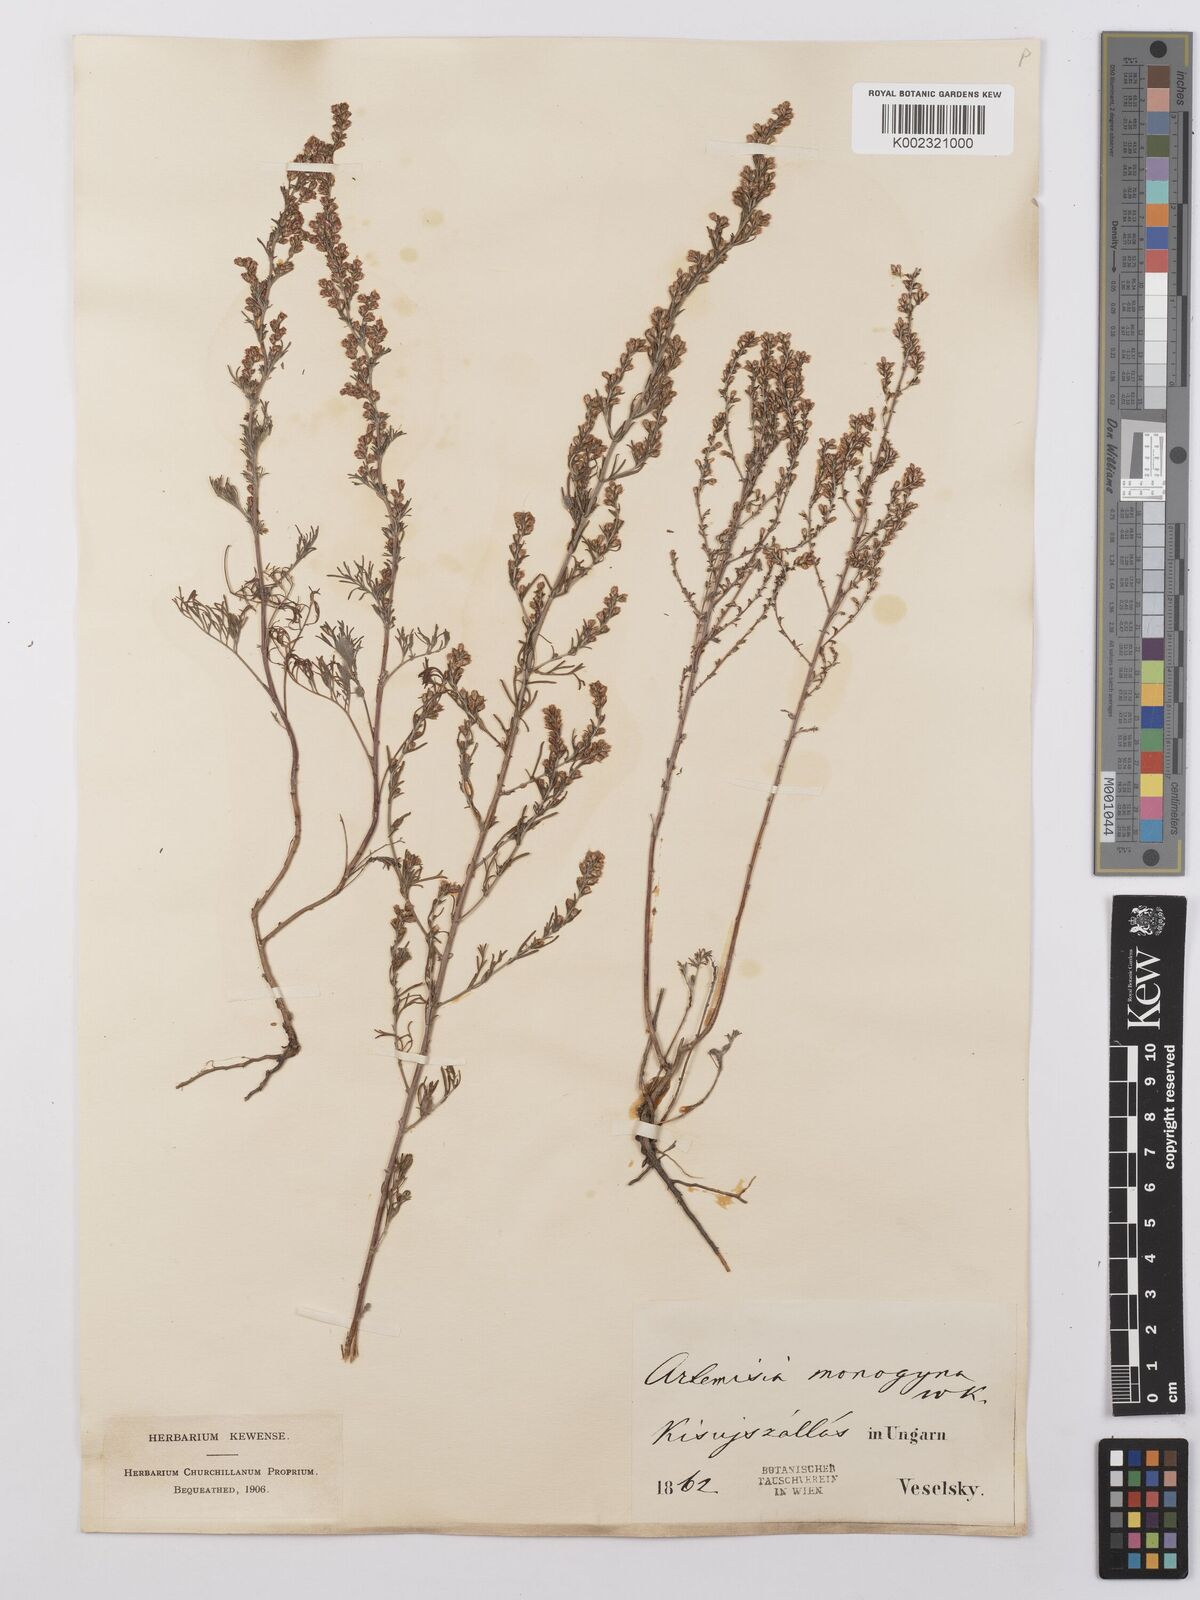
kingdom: Plantae
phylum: Tracheophyta
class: Magnoliopsida
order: Asterales
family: Asteraceae
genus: Artemisia
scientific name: Artemisia santolina
